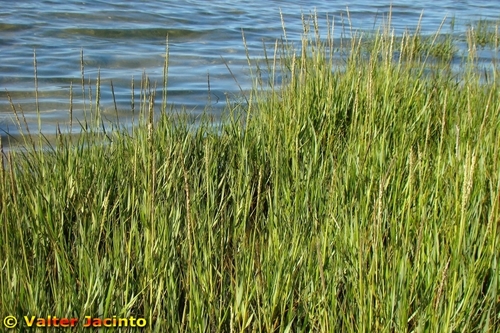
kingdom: Plantae
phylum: Tracheophyta
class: Liliopsida
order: Poales
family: Poaceae
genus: Sporobolus
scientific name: Sporobolus maritimus
